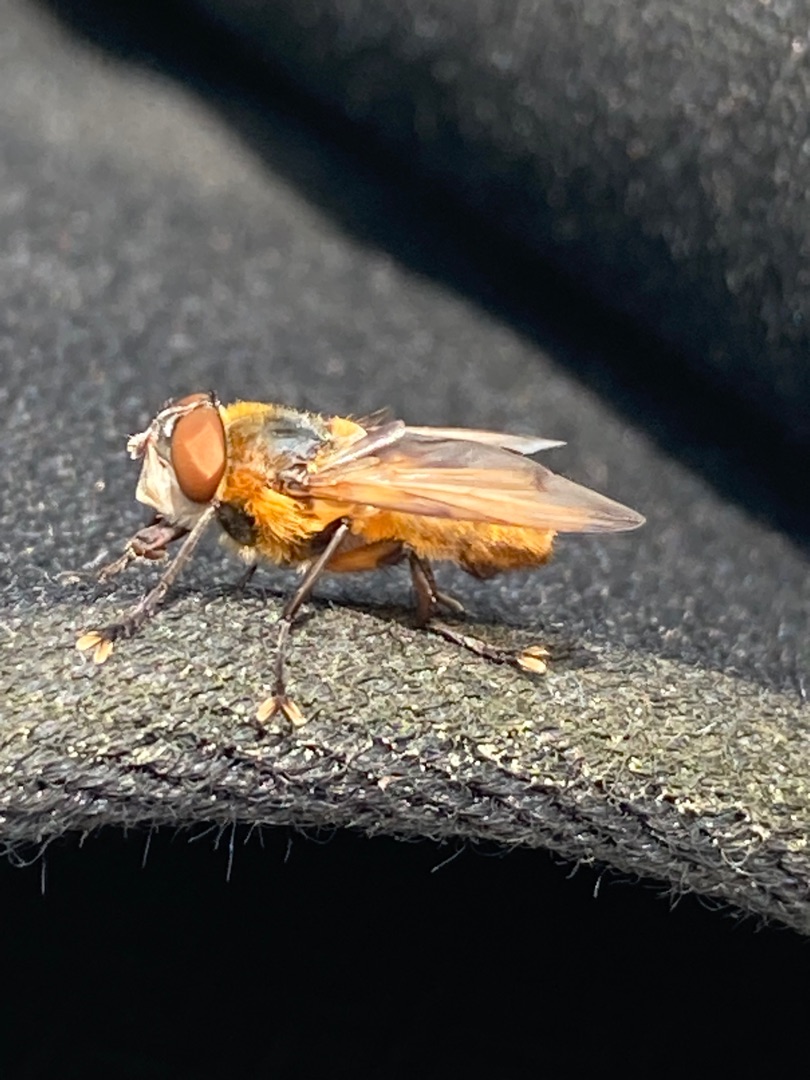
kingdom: Animalia
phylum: Arthropoda
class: Insecta
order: Diptera
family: Tachinidae
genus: Phasia
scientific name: Phasia hemiptera
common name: Blåvinget pragtsnylteflue
